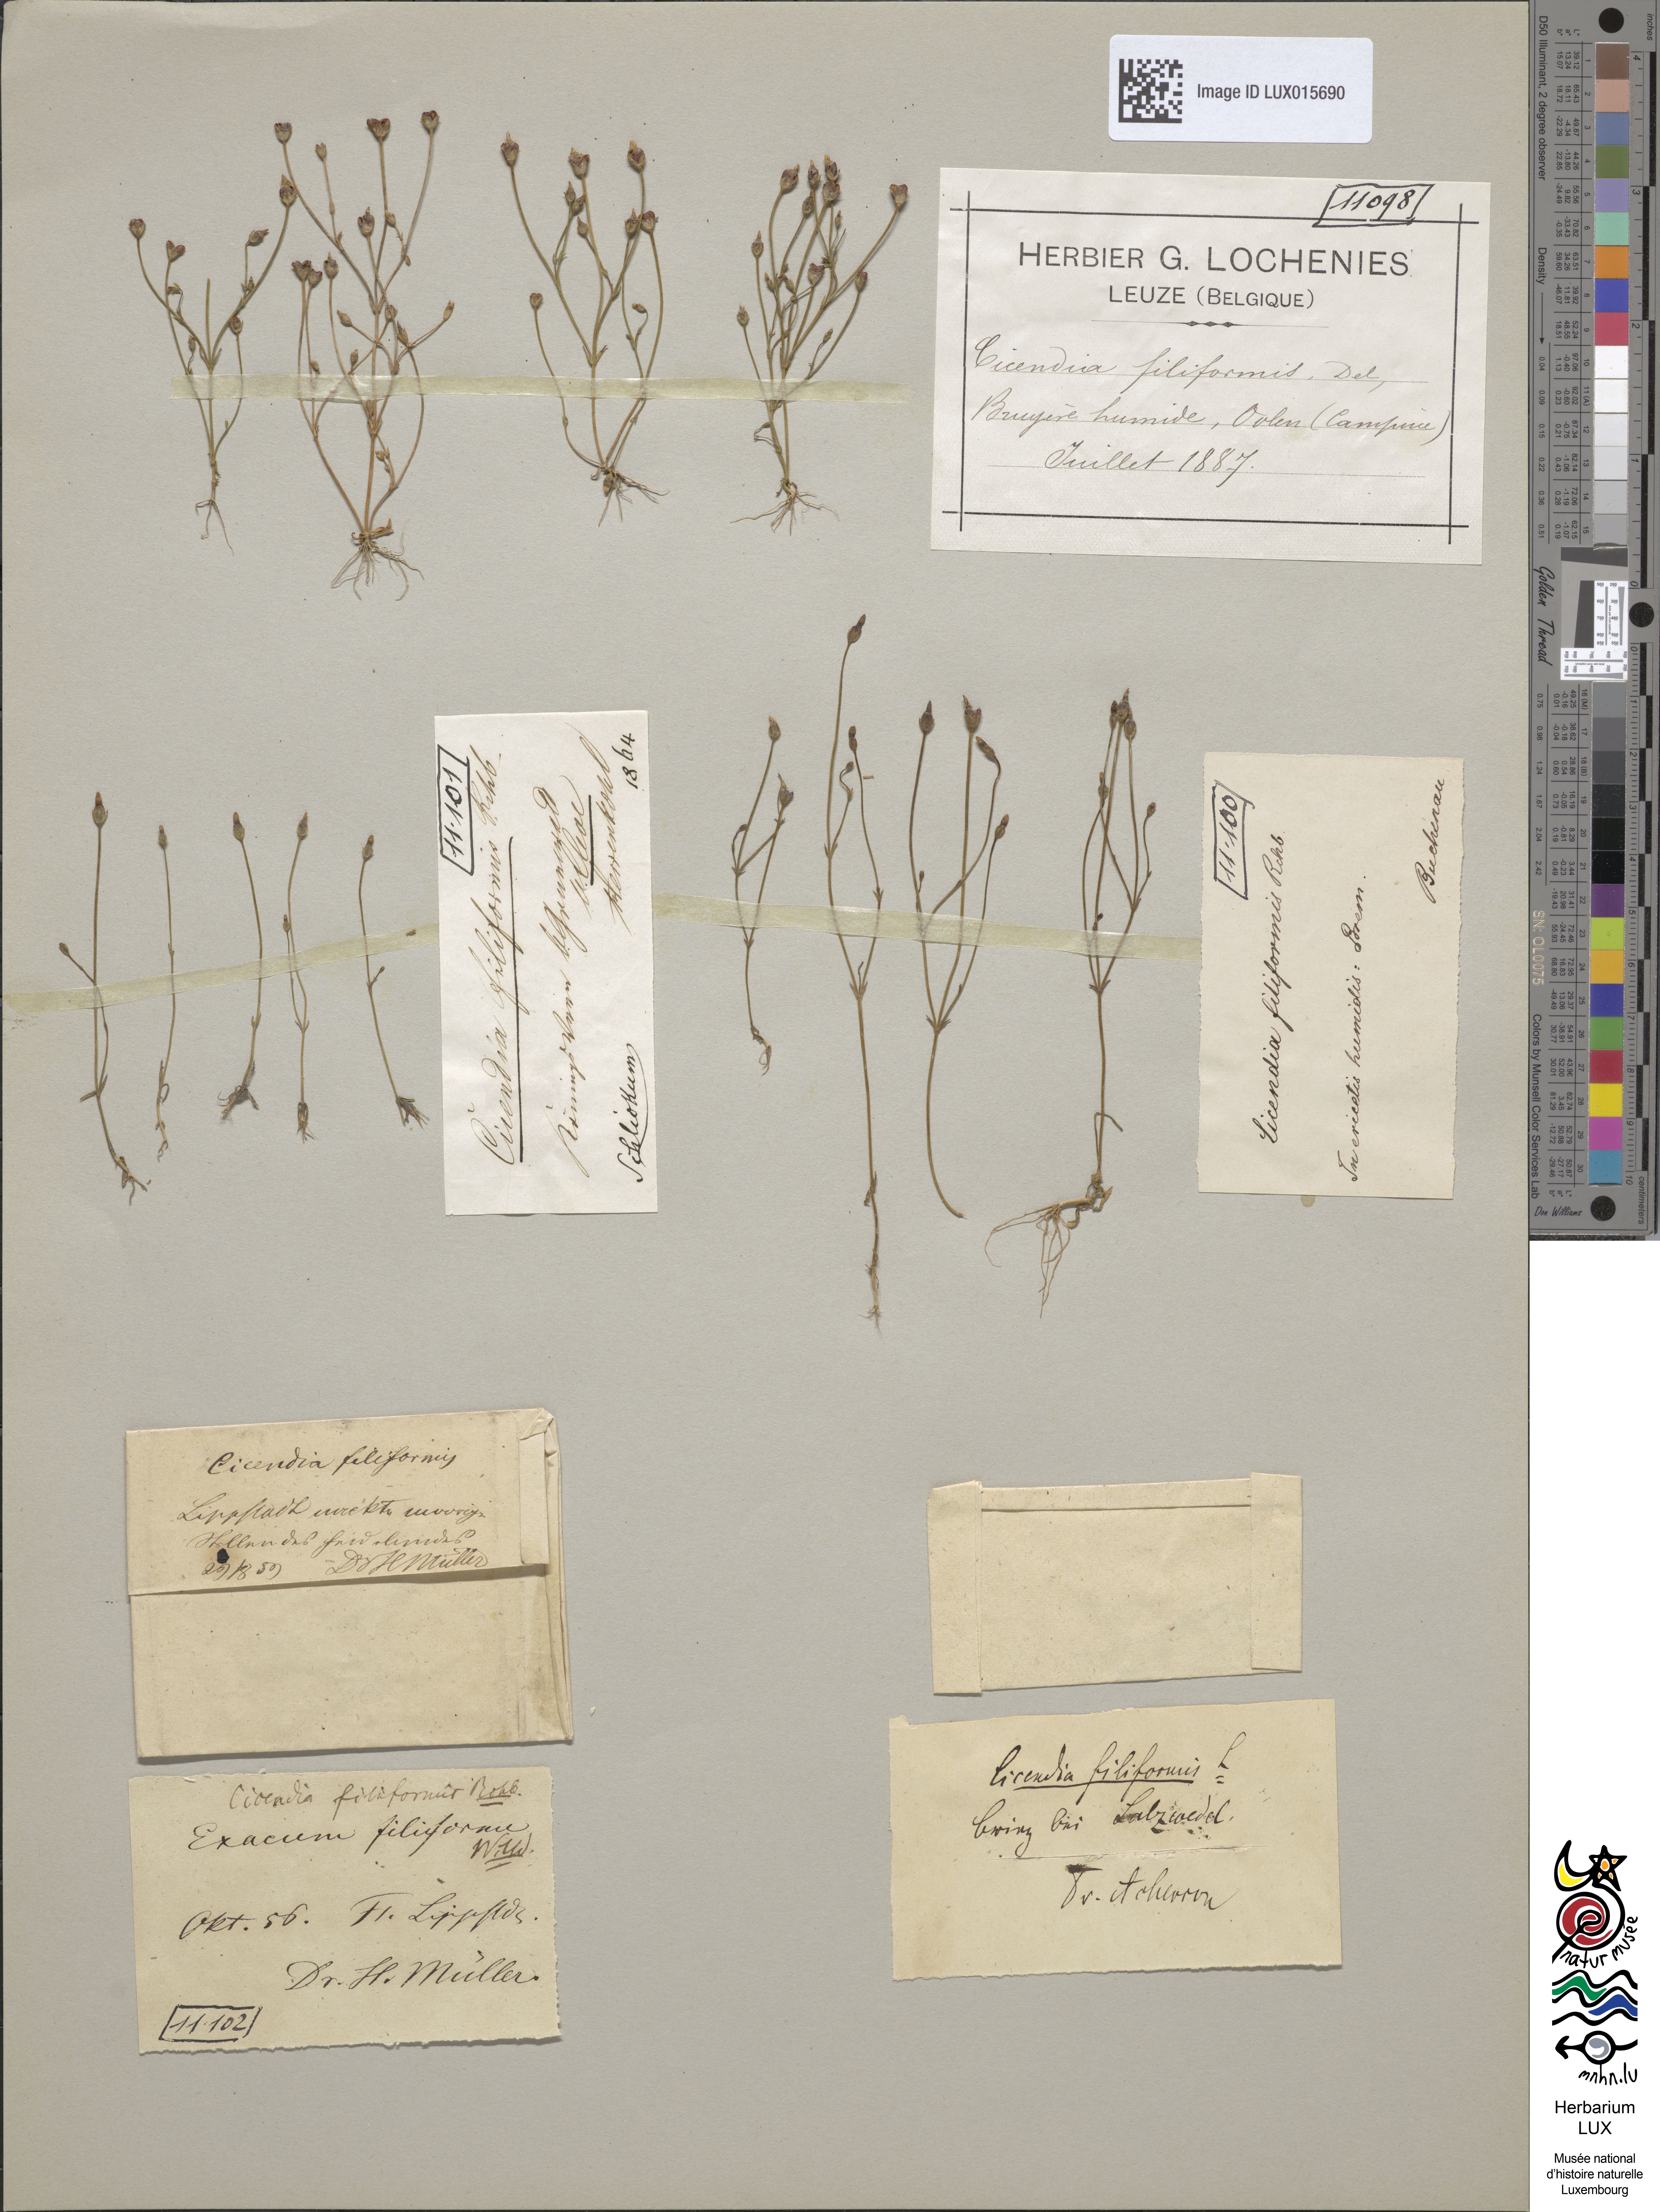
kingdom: Plantae
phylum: Tracheophyta
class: Magnoliopsida
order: Gentianales
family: Gentianaceae
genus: Cicendia
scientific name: Cicendia filiformis
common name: Yellow centaury
